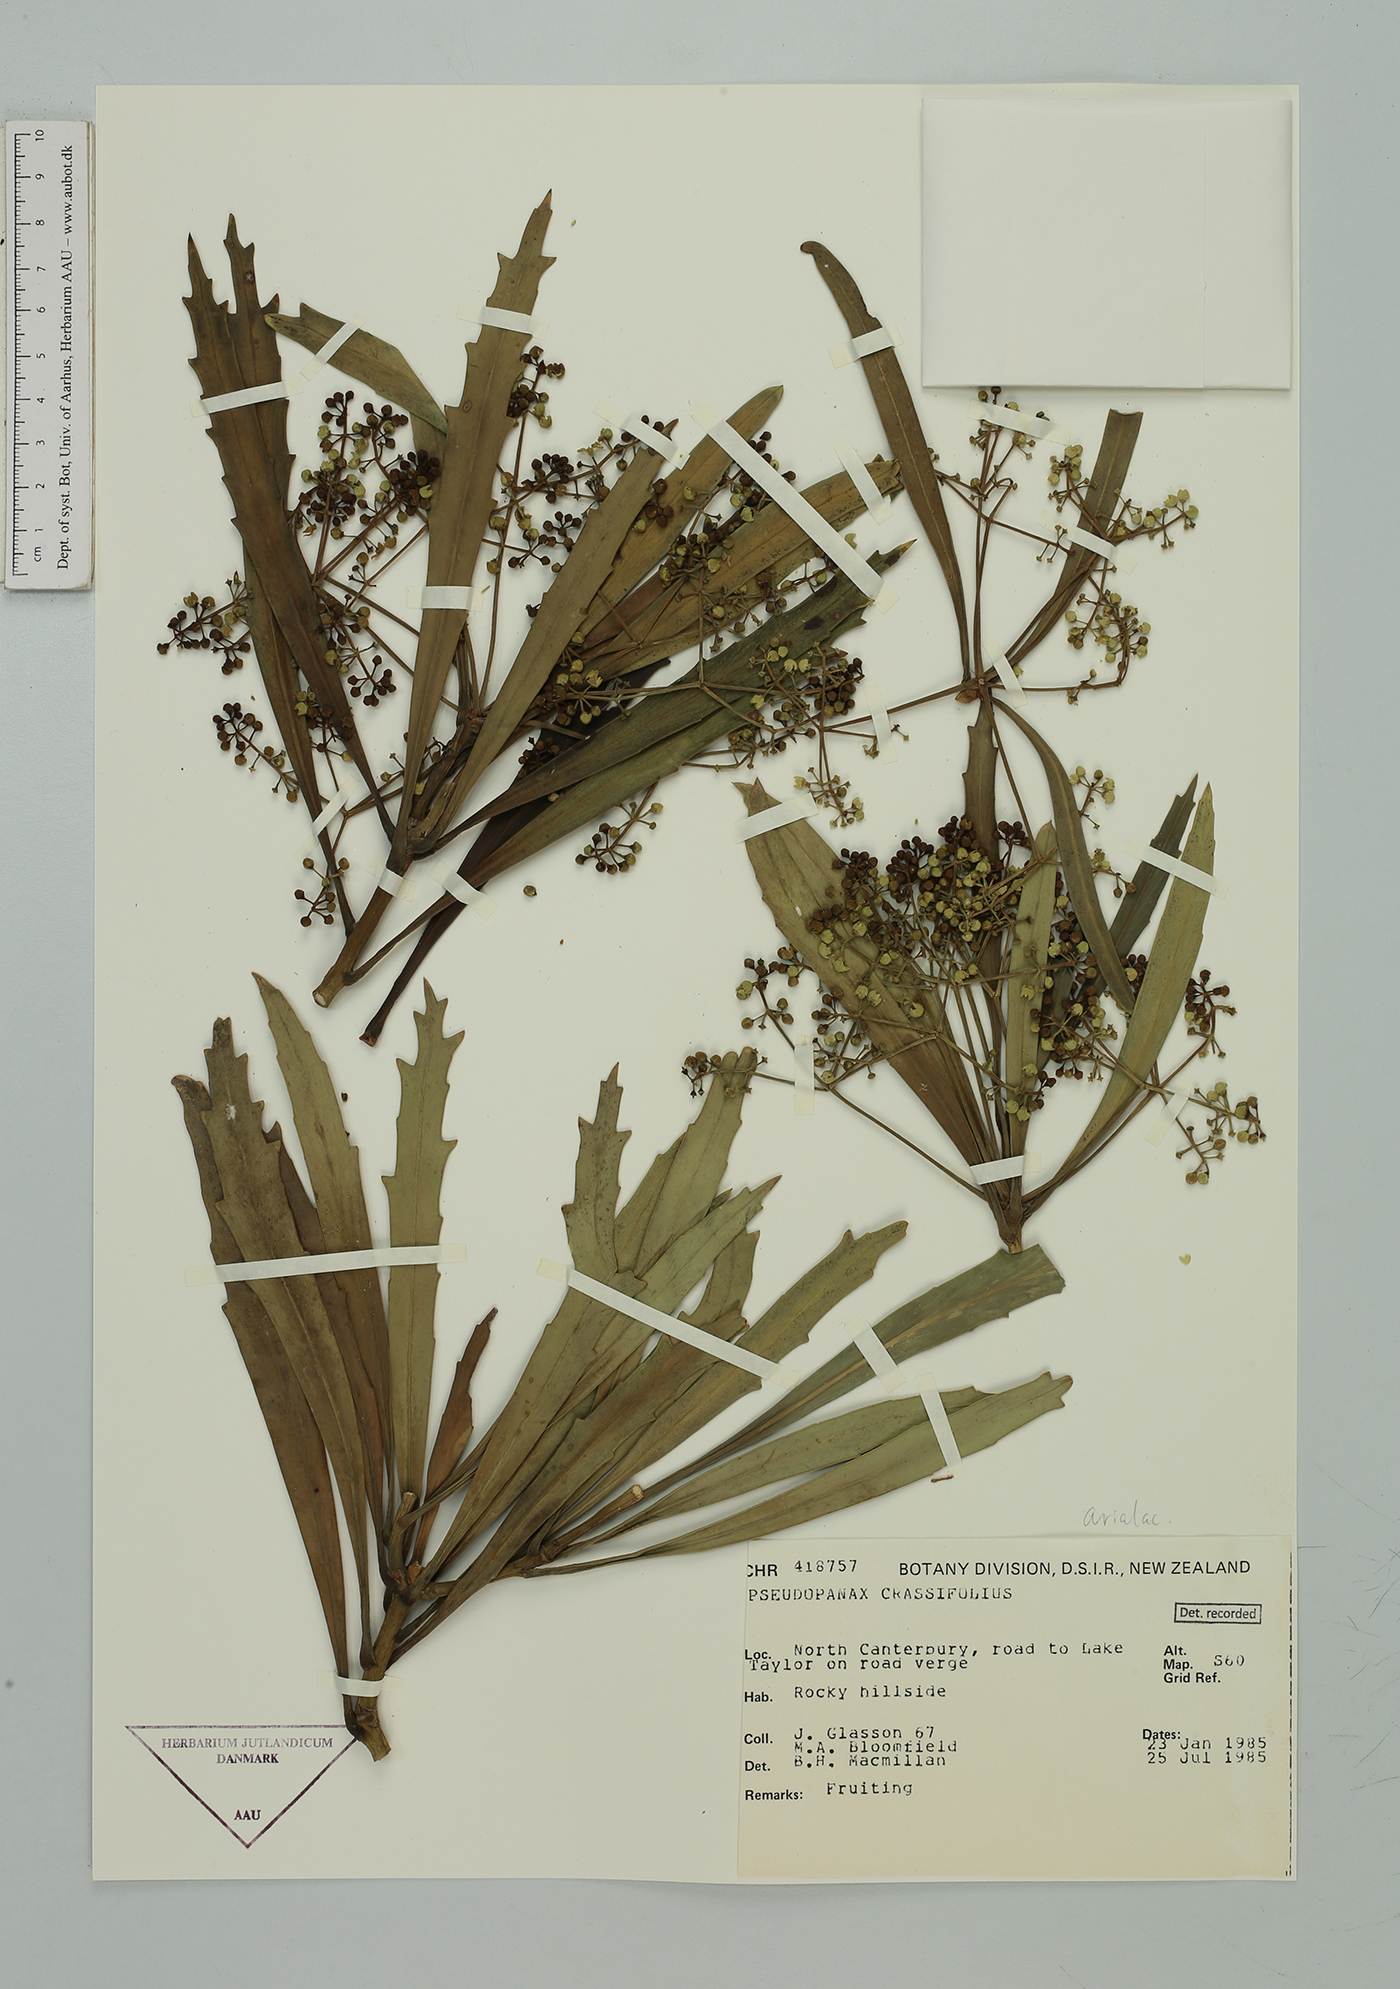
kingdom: Plantae
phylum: Tracheophyta
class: Magnoliopsida
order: Apiales
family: Araliaceae
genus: Pseudopanax
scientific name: Pseudopanax crassifolius
